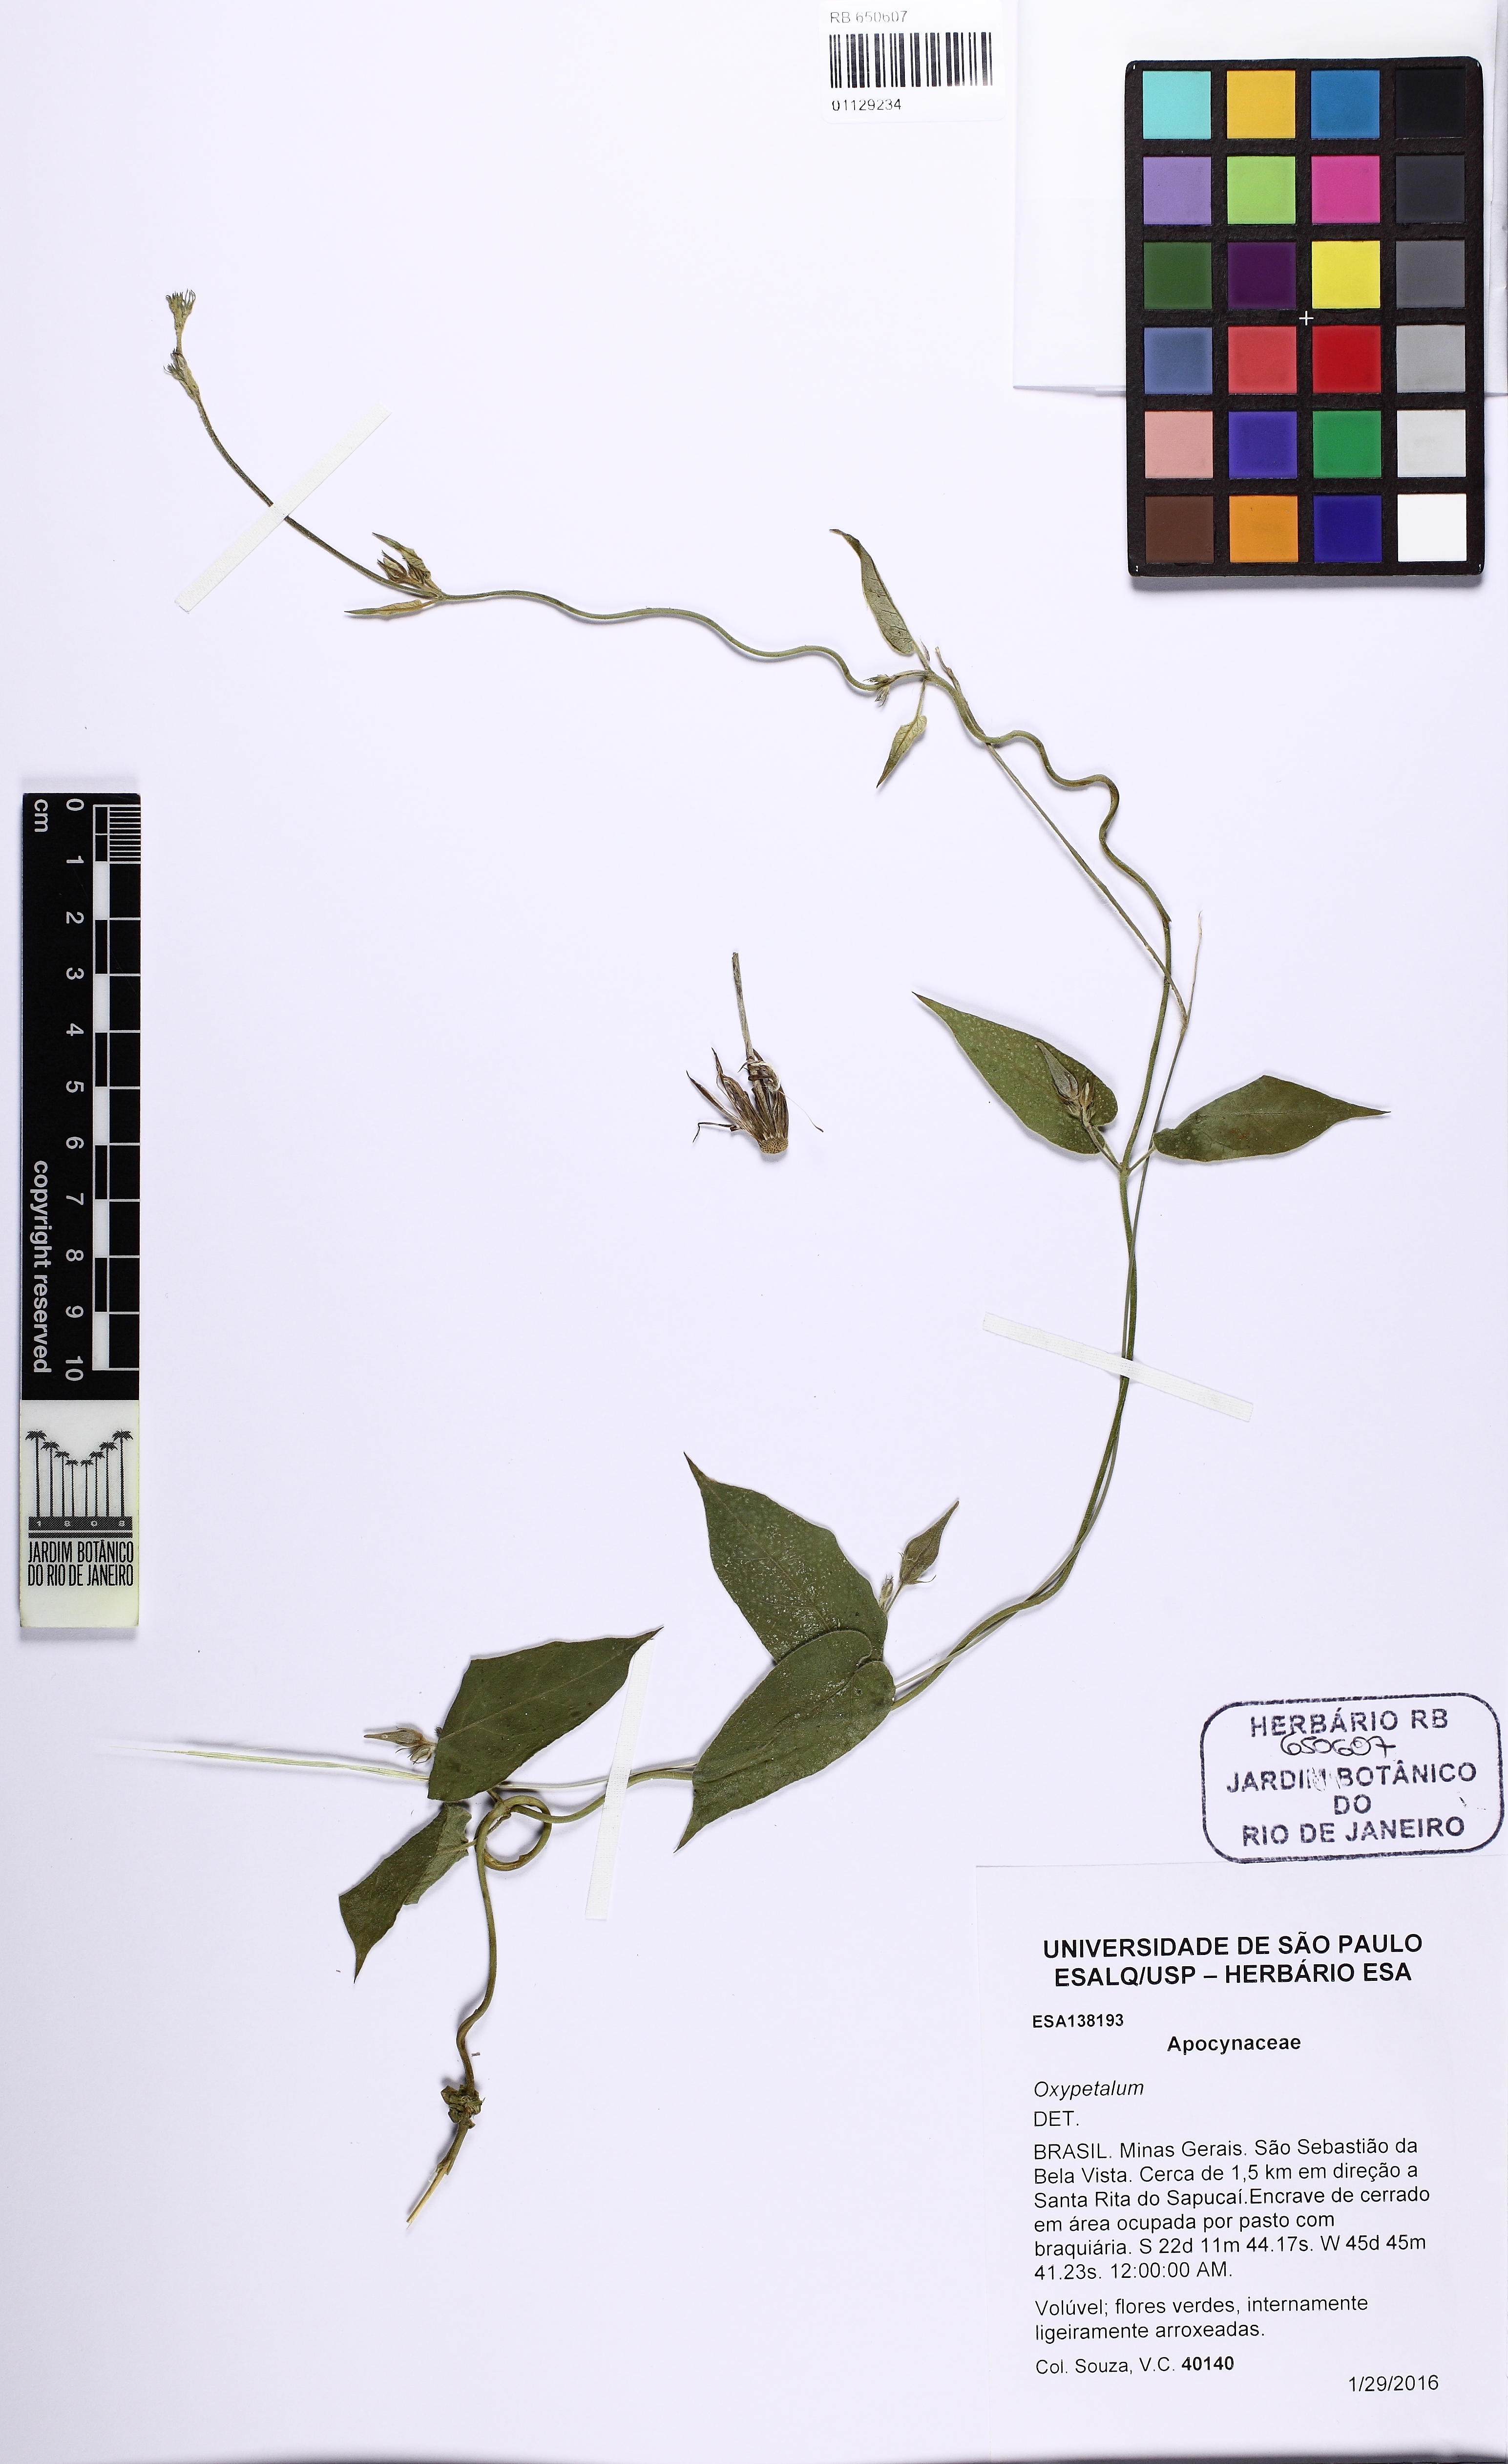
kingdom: Plantae
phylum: Tracheophyta
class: Magnoliopsida
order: Gentianales
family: Apocynaceae
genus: Oxypetalum
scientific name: Oxypetalum appendiculatum
